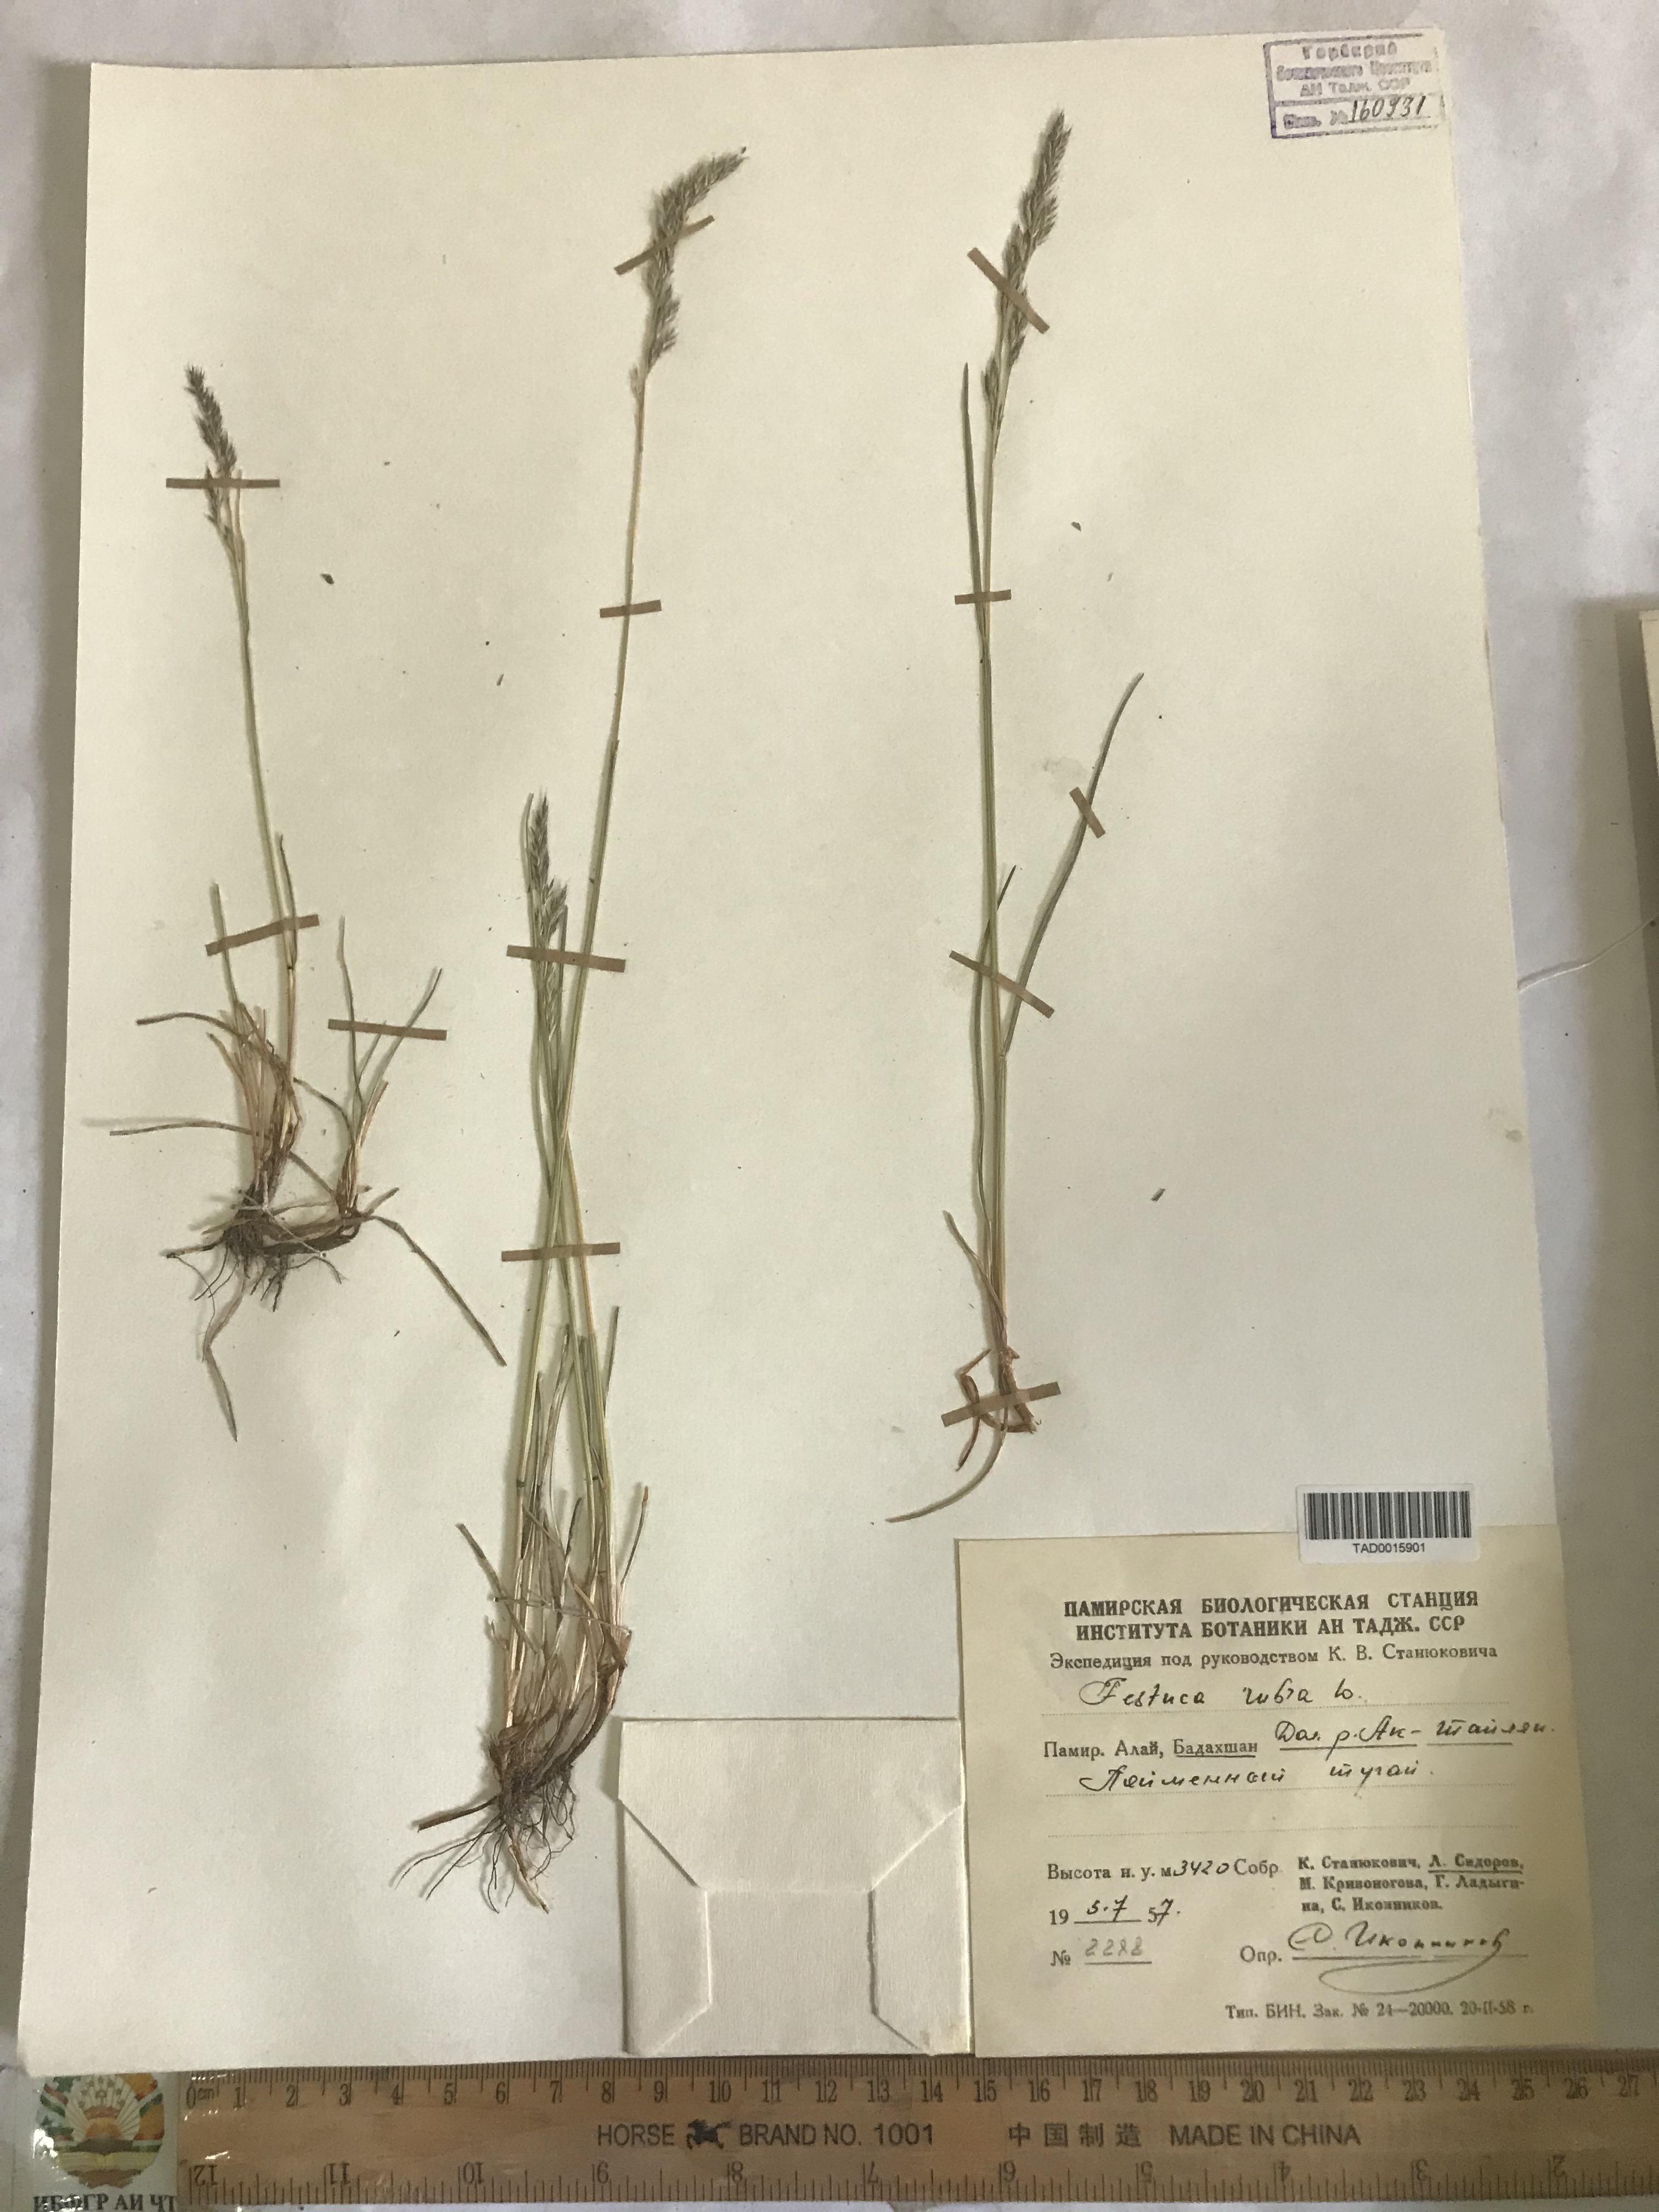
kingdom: Plantae
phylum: Tracheophyta
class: Liliopsida
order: Poales
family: Poaceae
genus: Festuca
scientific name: Festuca rubra
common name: Red fescue
